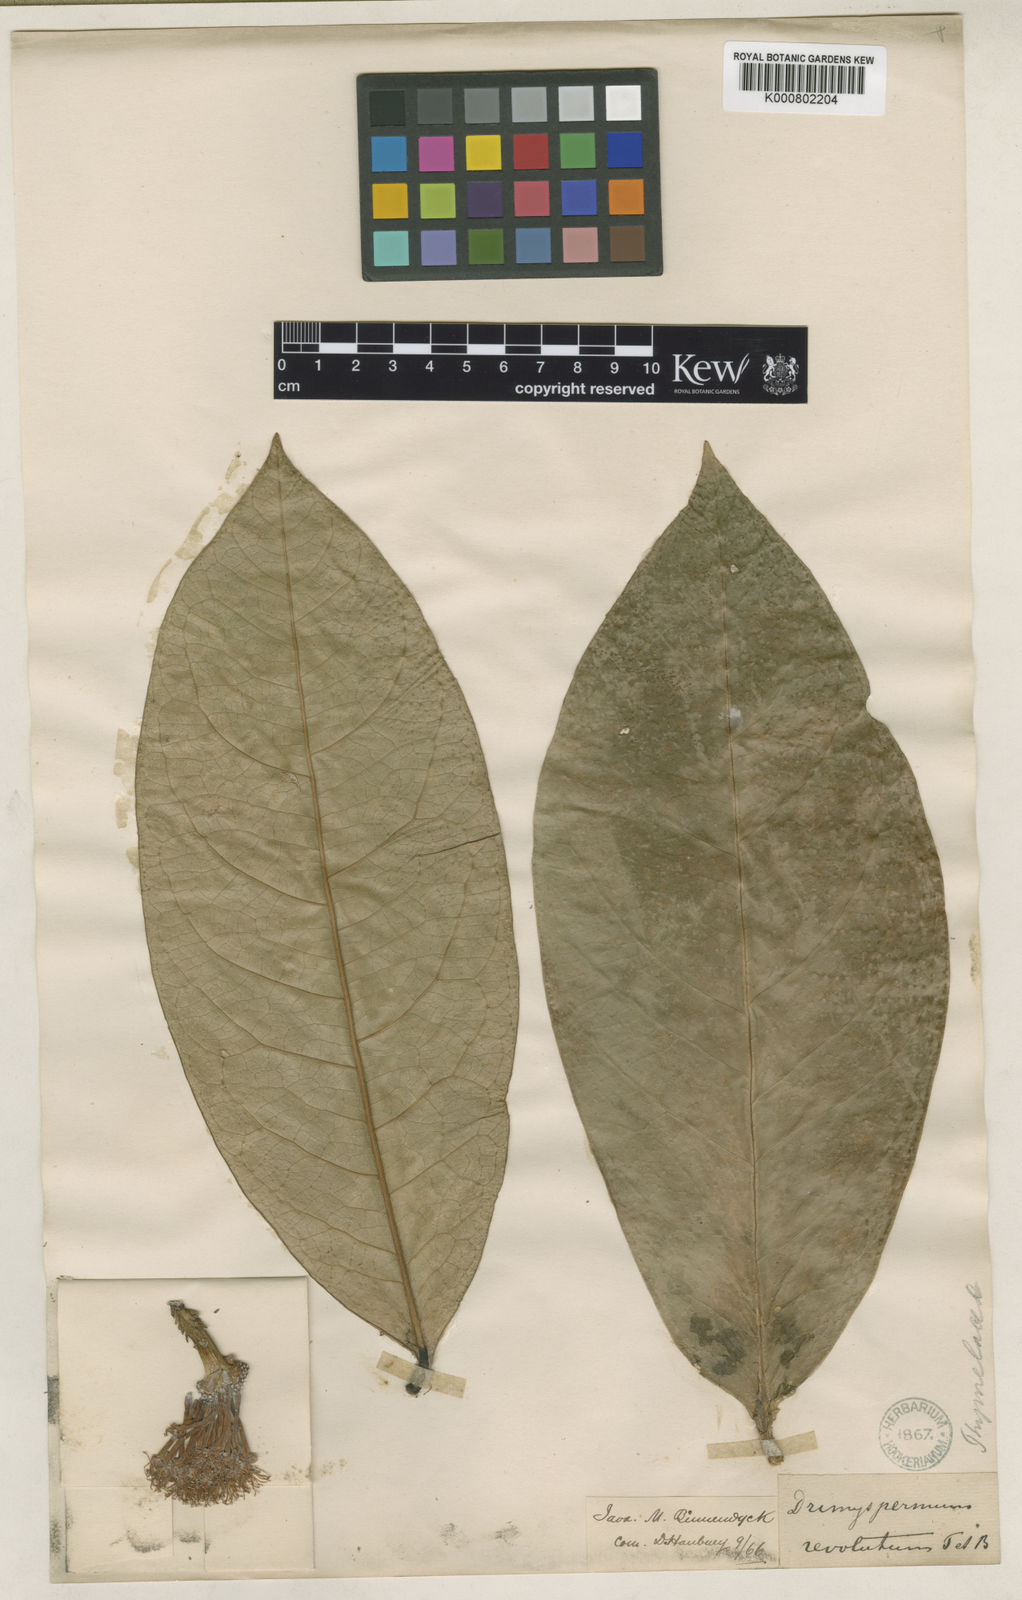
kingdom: Plantae
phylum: Tracheophyta
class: Magnoliopsida
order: Malvales
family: Thymelaeaceae
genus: Phaleria
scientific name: Phaleria coccinea
